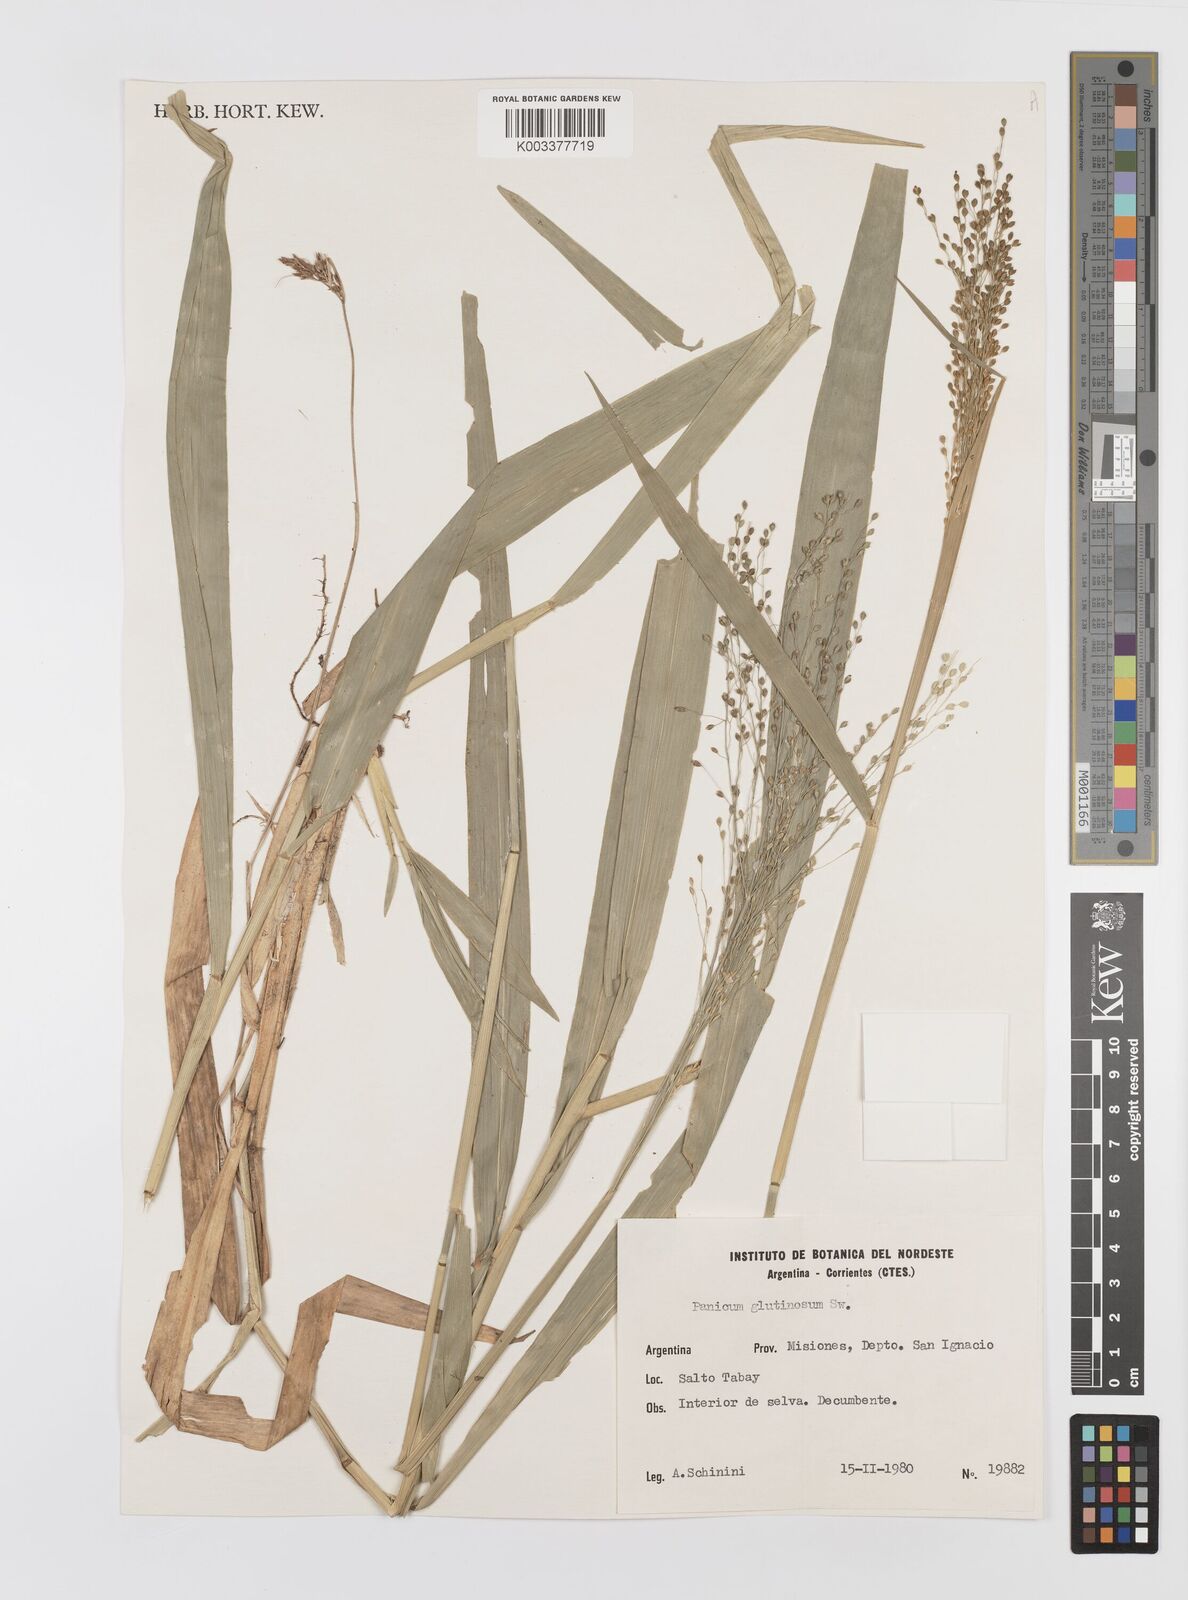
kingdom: Plantae
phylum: Tracheophyta
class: Liliopsida
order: Poales
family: Poaceae
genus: Homolepis
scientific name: Homolepis glutinosa
